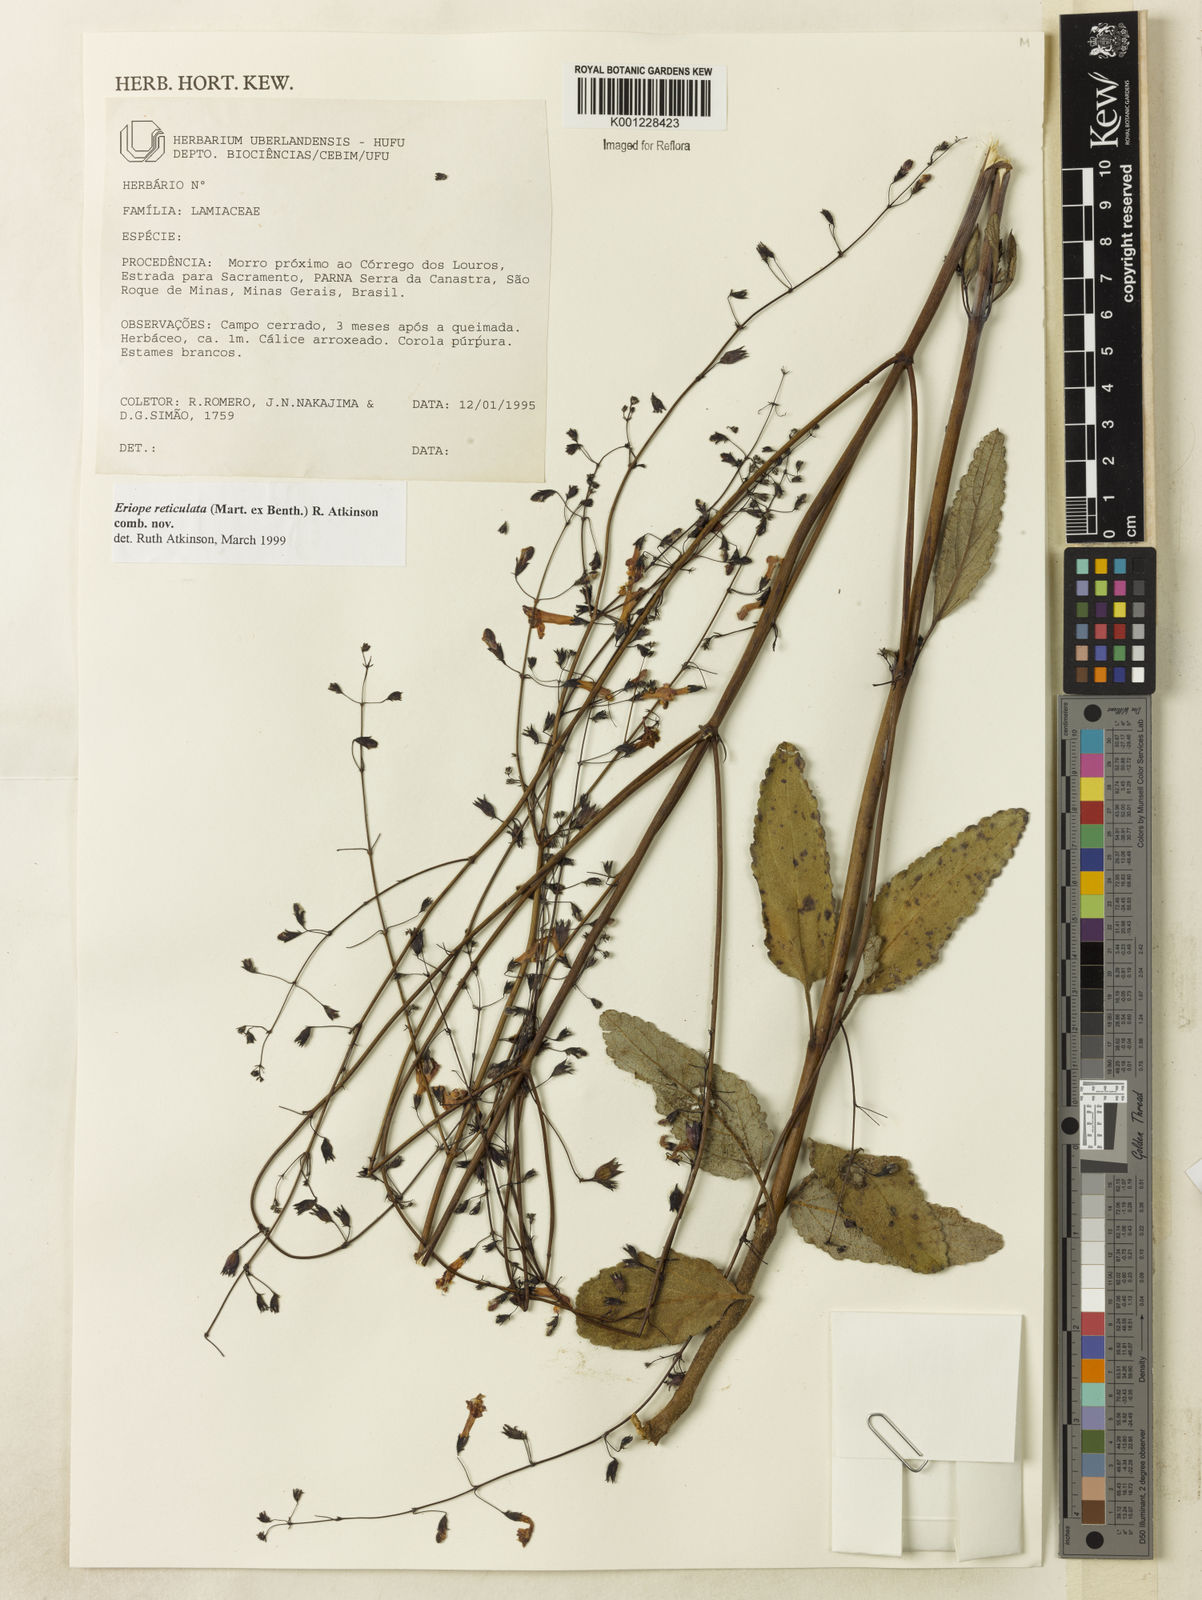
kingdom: Plantae
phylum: Tracheophyta
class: Magnoliopsida
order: Lamiales
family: Lamiaceae
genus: Hypenia
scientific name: Hypenia reticulata
